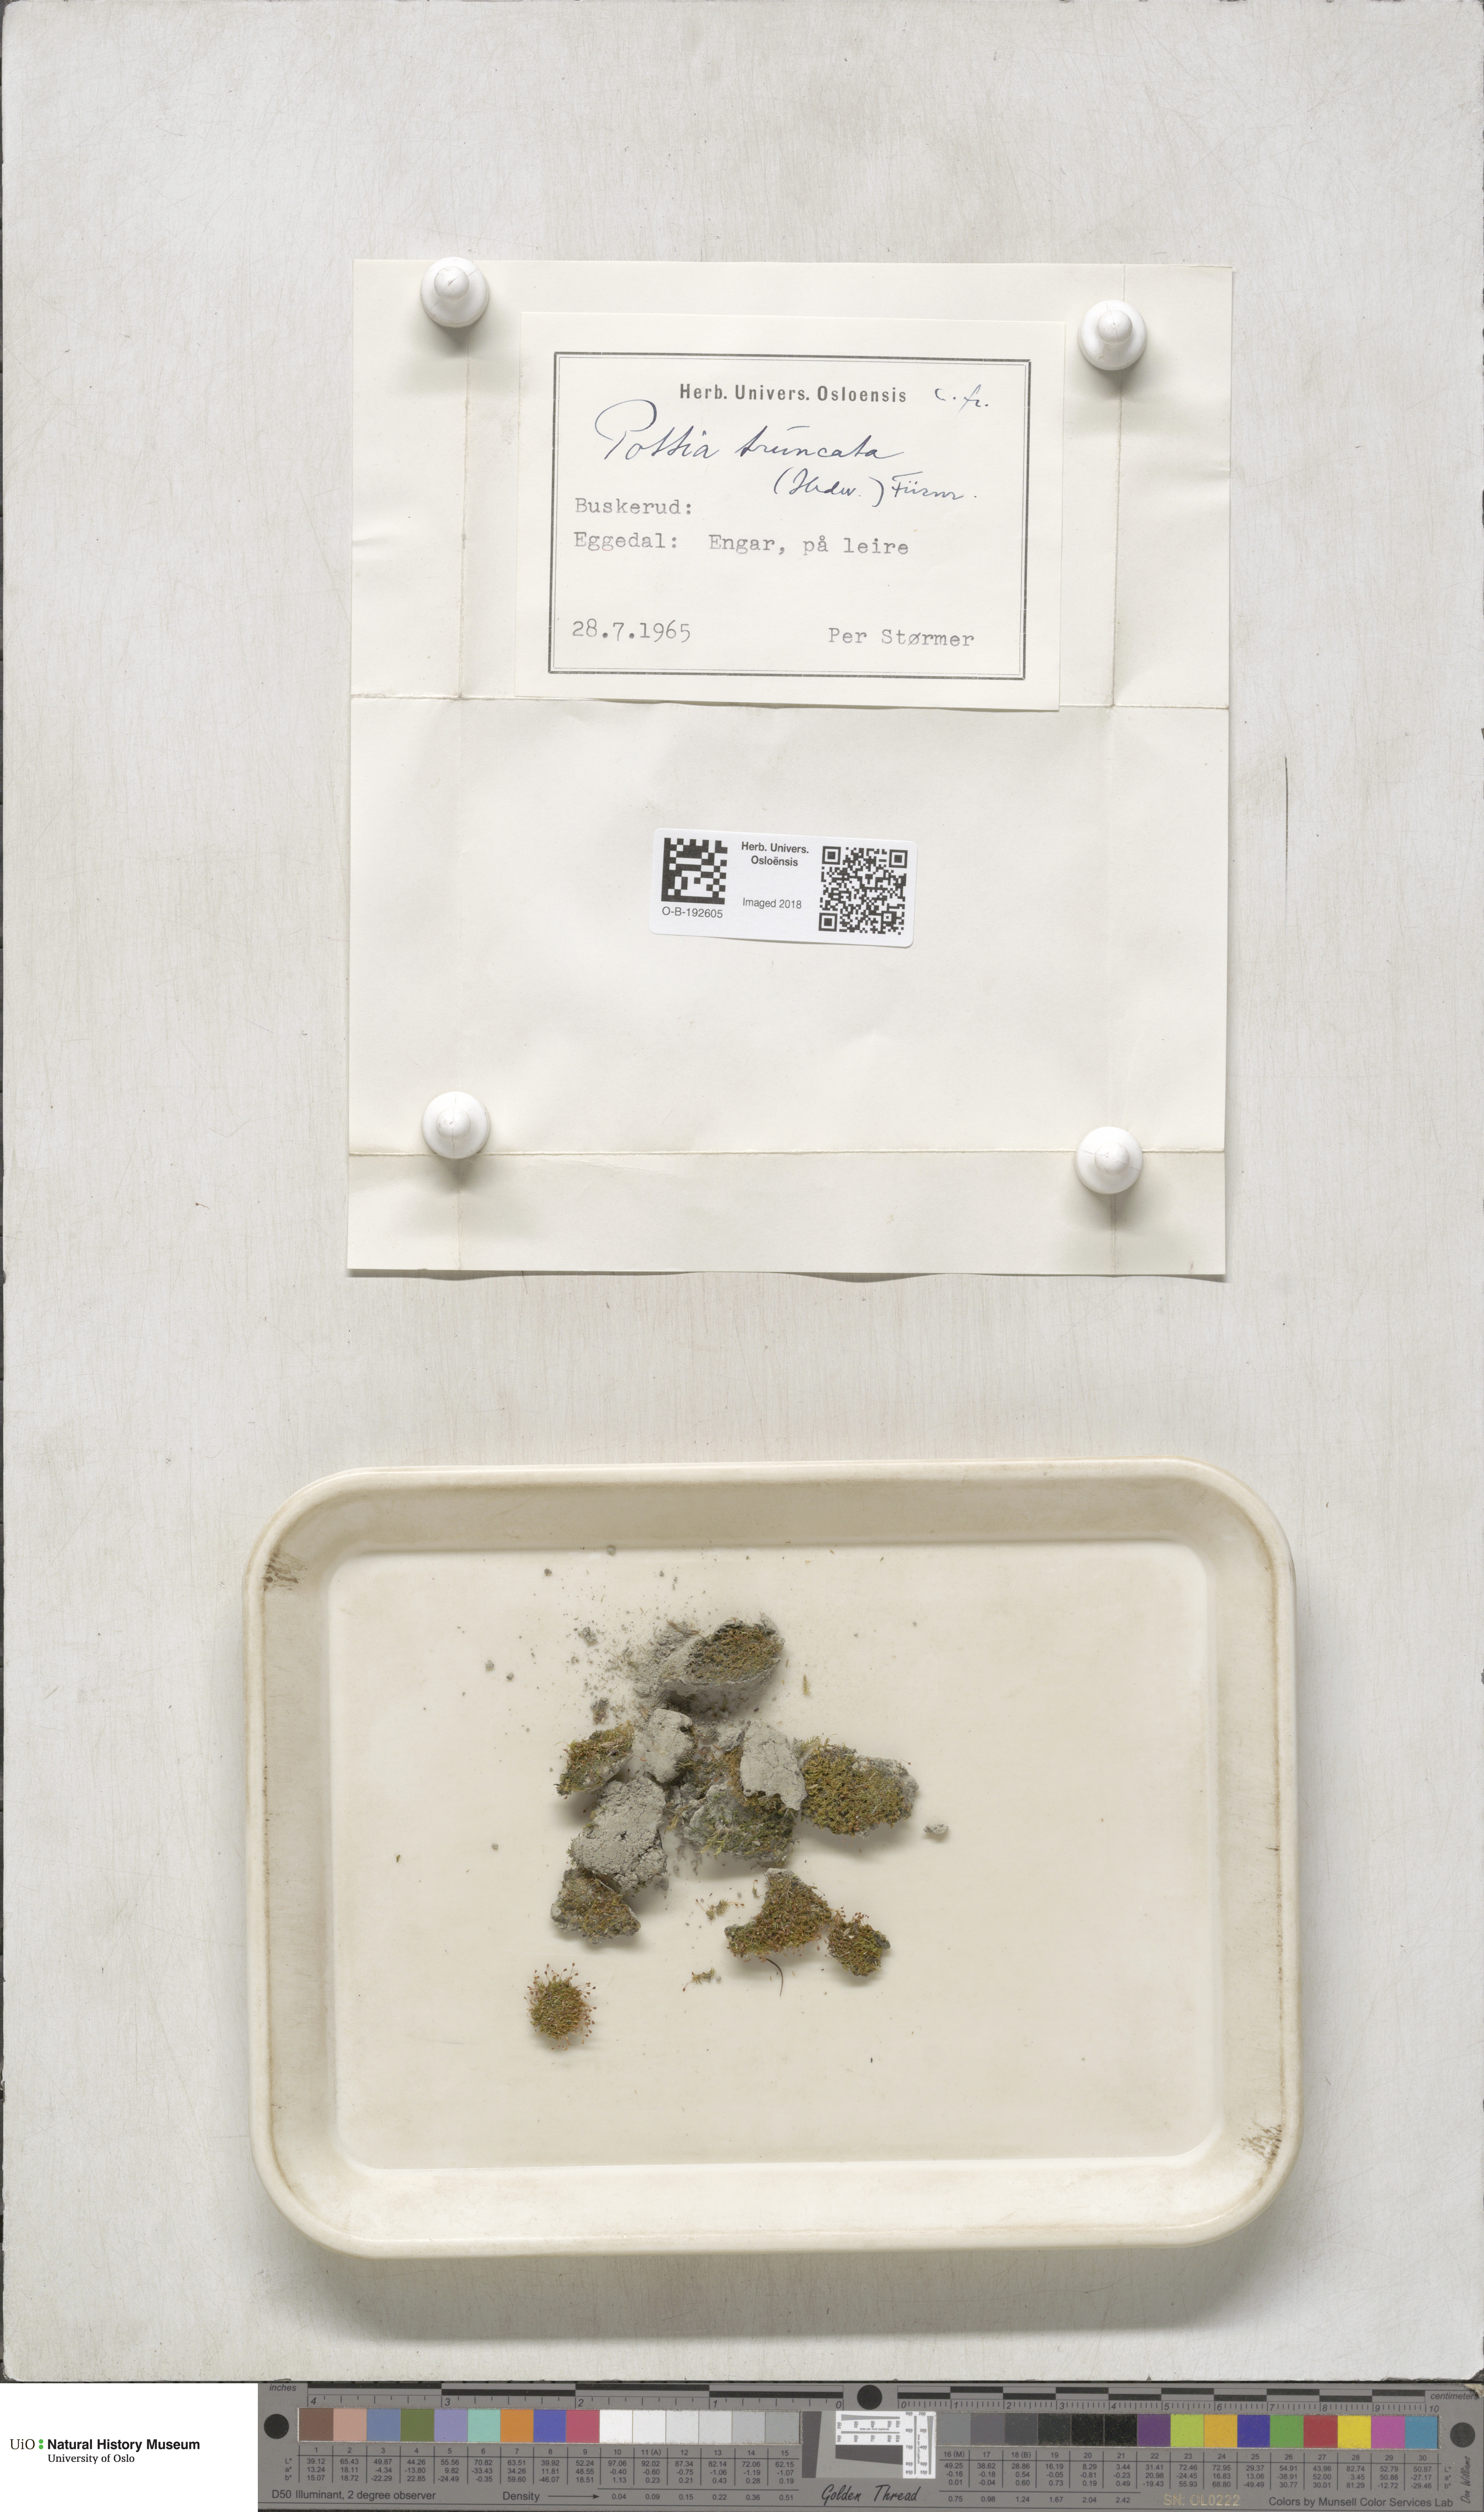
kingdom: Plantae
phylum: Bryophyta
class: Bryopsida
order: Pottiales
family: Pottiaceae
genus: Tortula
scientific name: Tortula truncata
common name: Truncated screw moss
